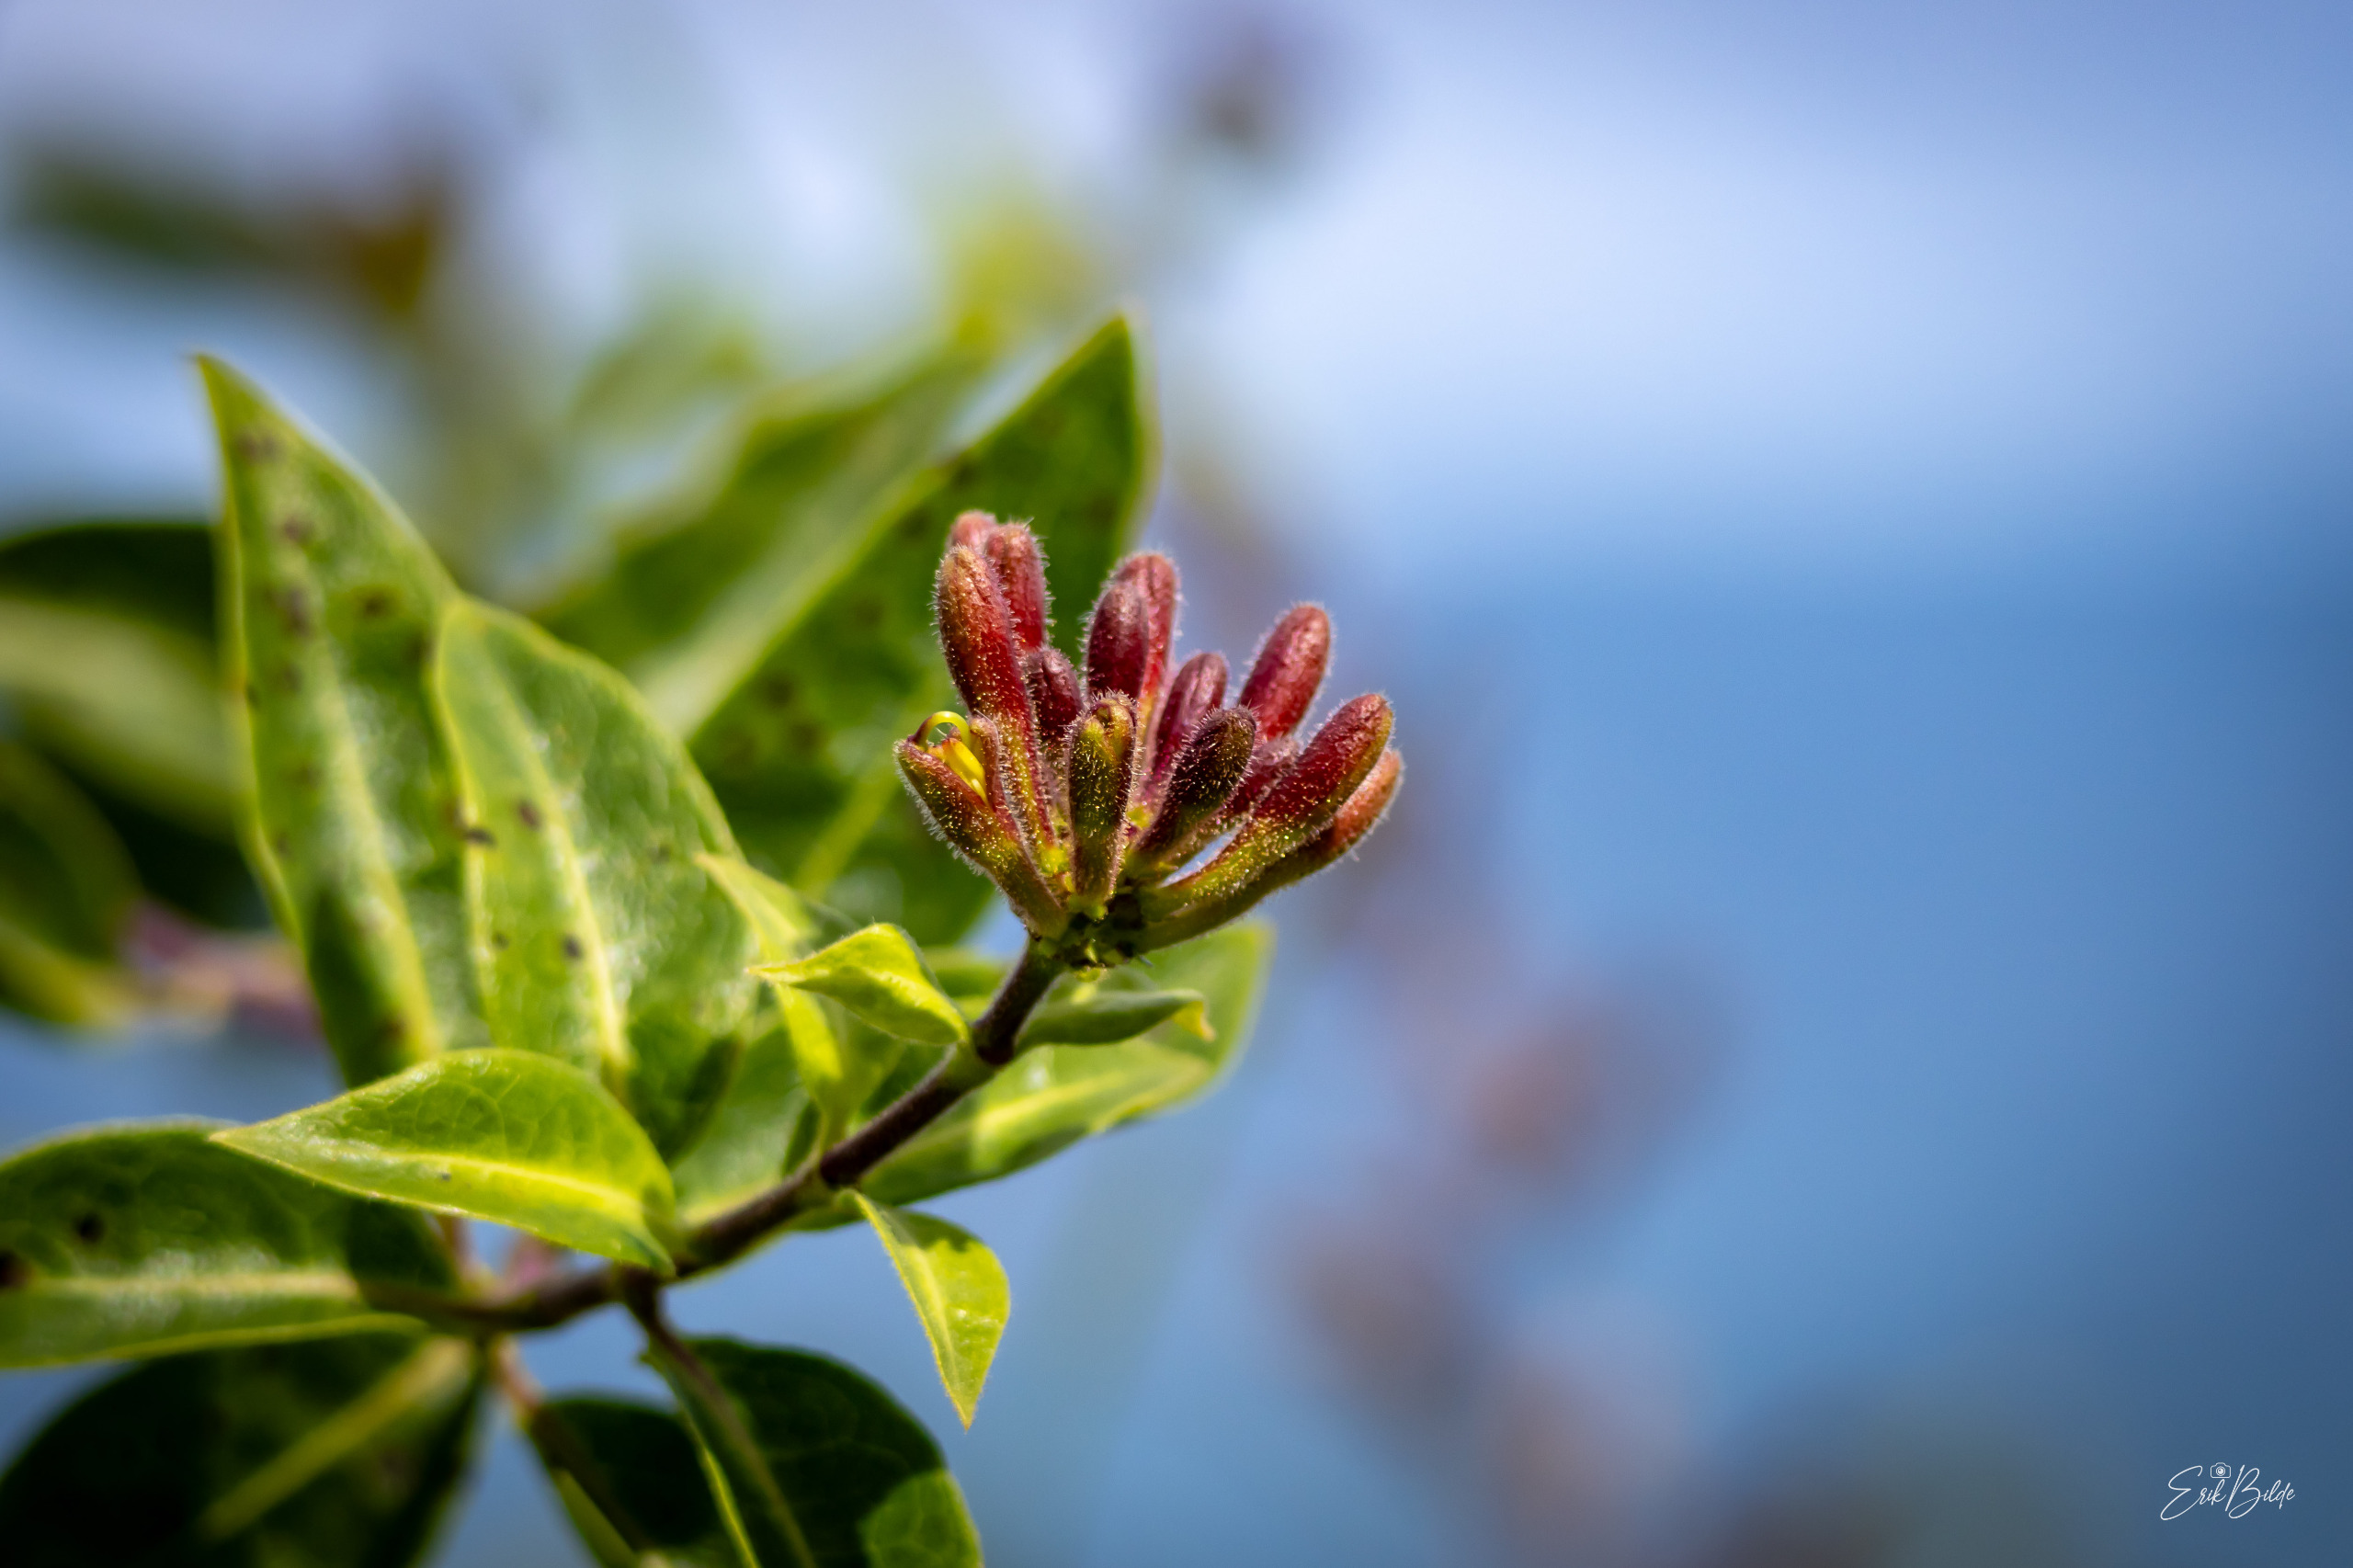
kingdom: Plantae
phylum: Tracheophyta
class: Magnoliopsida
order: Dipsacales
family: Caprifoliaceae
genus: Lonicera
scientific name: Lonicera periclymenum
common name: Almindelig gedeblad
